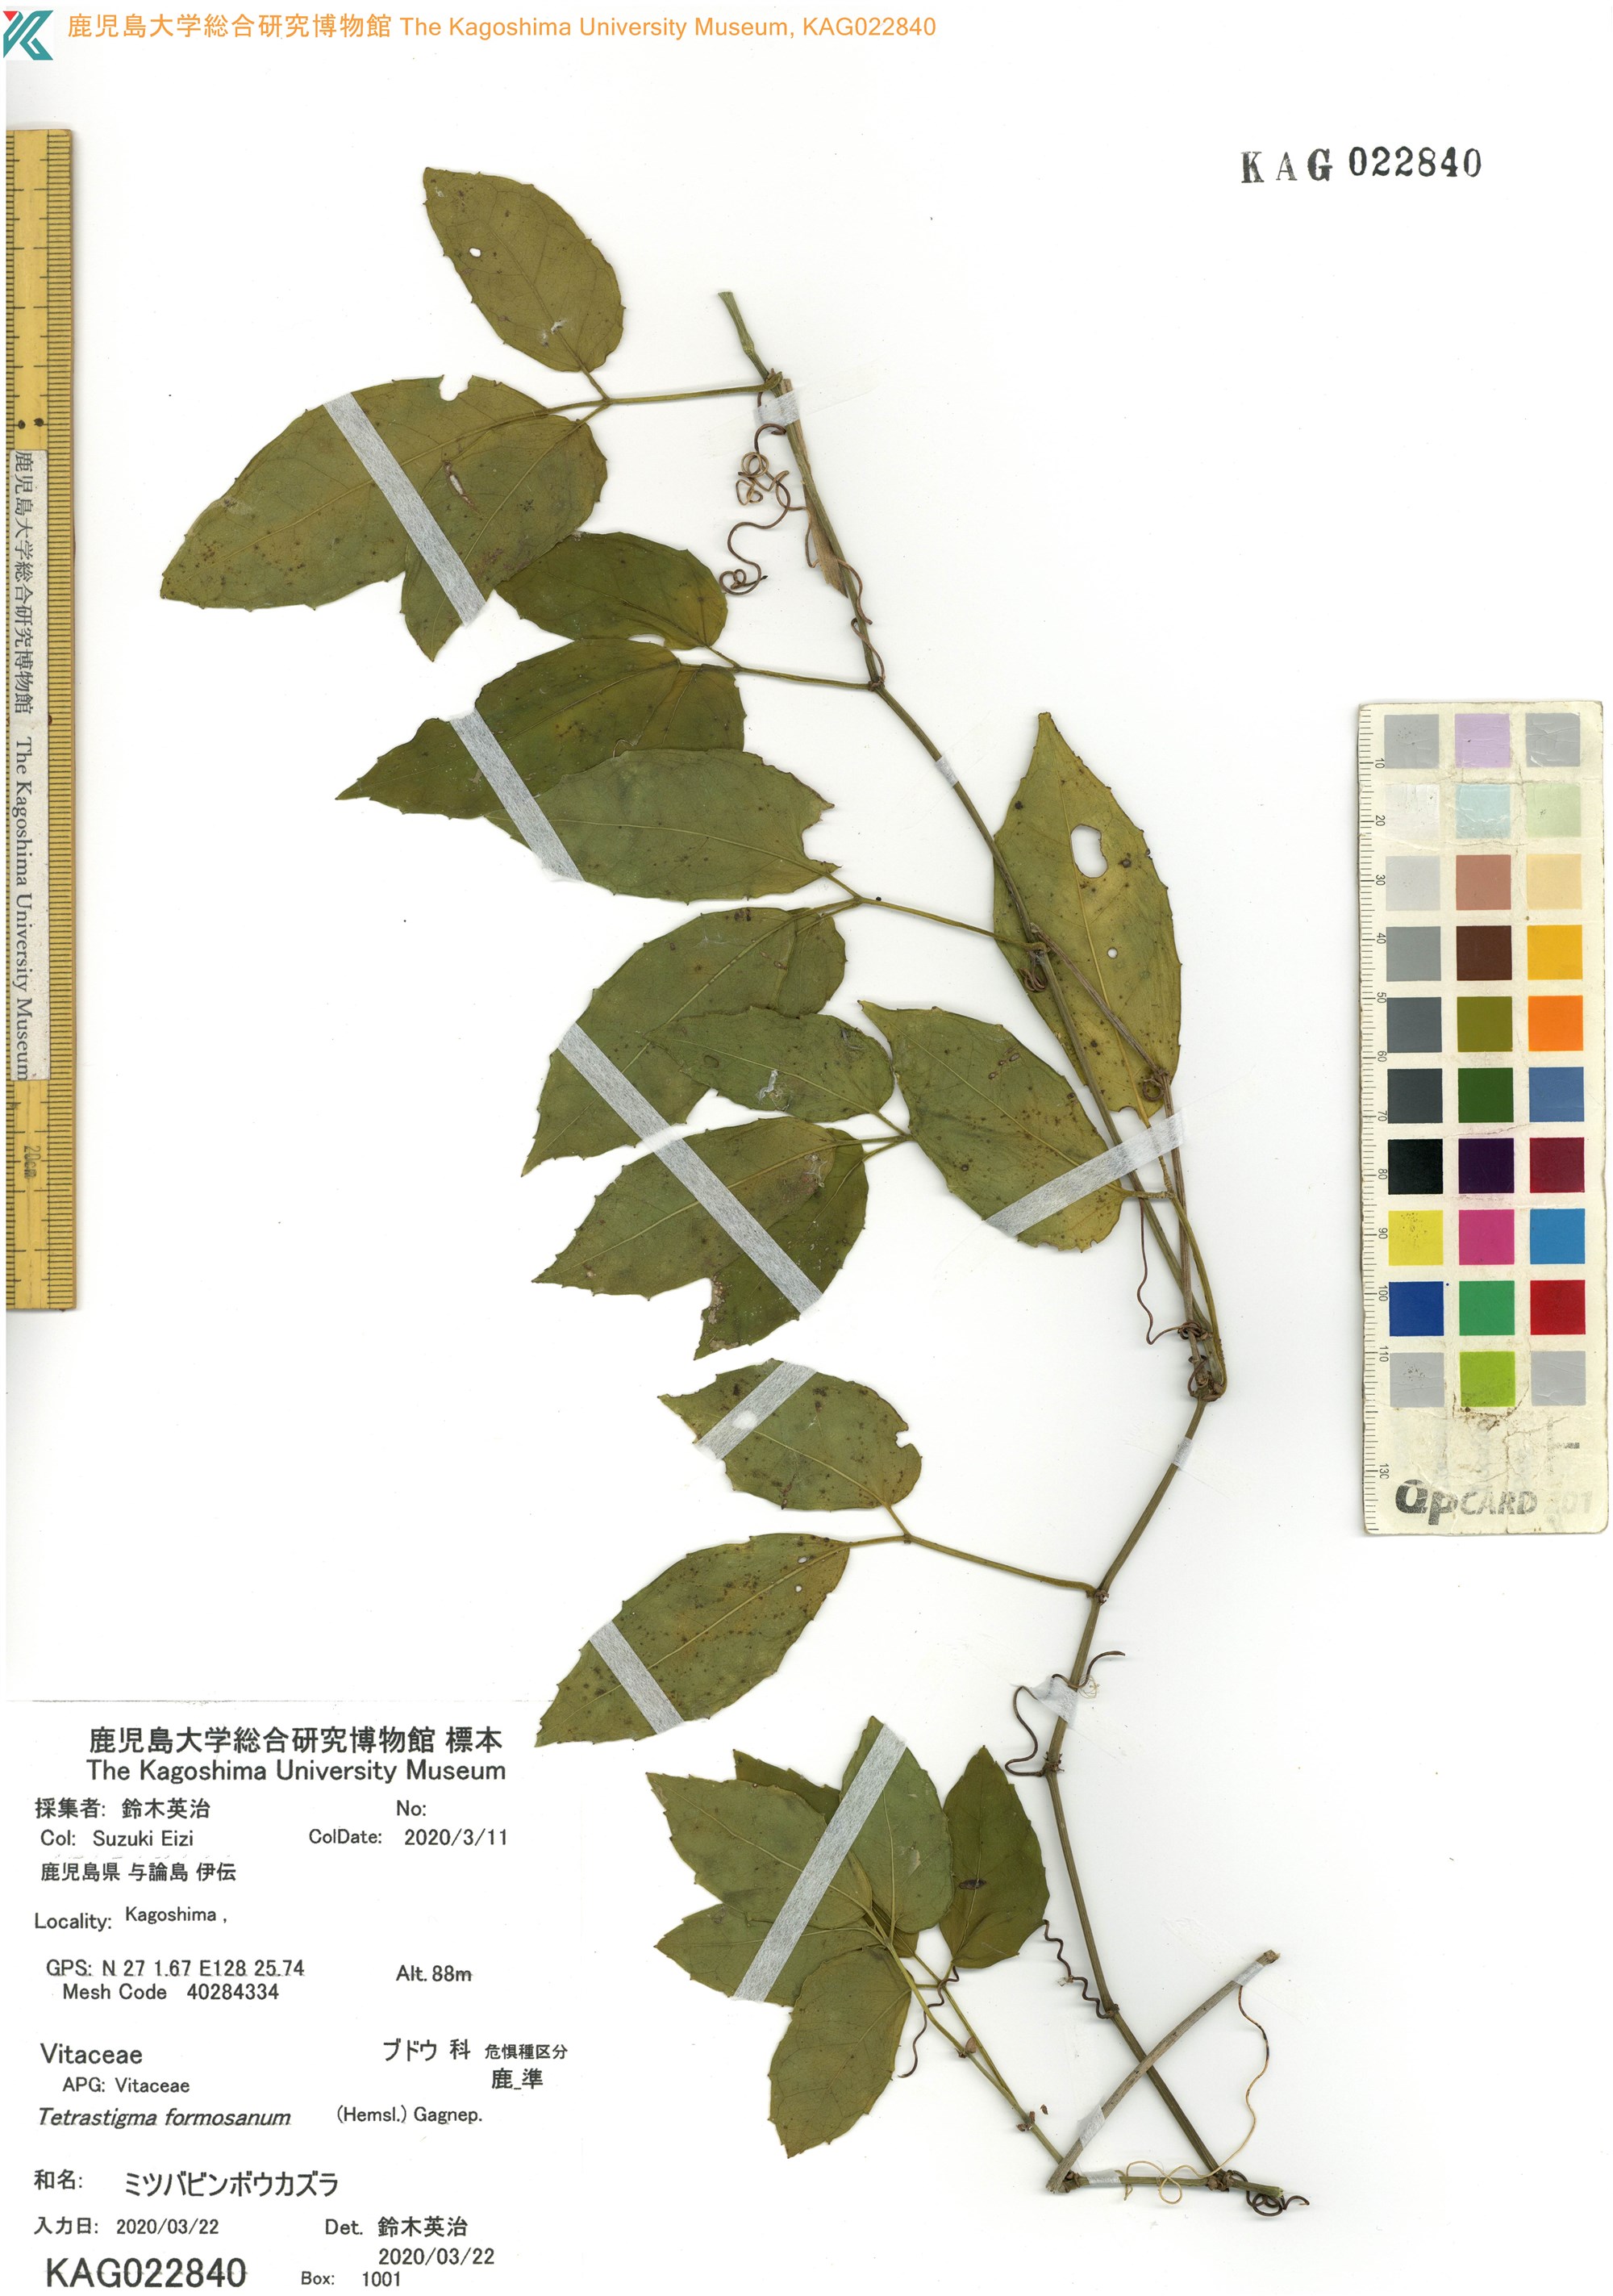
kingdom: Plantae
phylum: Tracheophyta
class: Magnoliopsida
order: Vitales
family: Vitaceae
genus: Tetrastigma
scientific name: Tetrastigma formosanum
